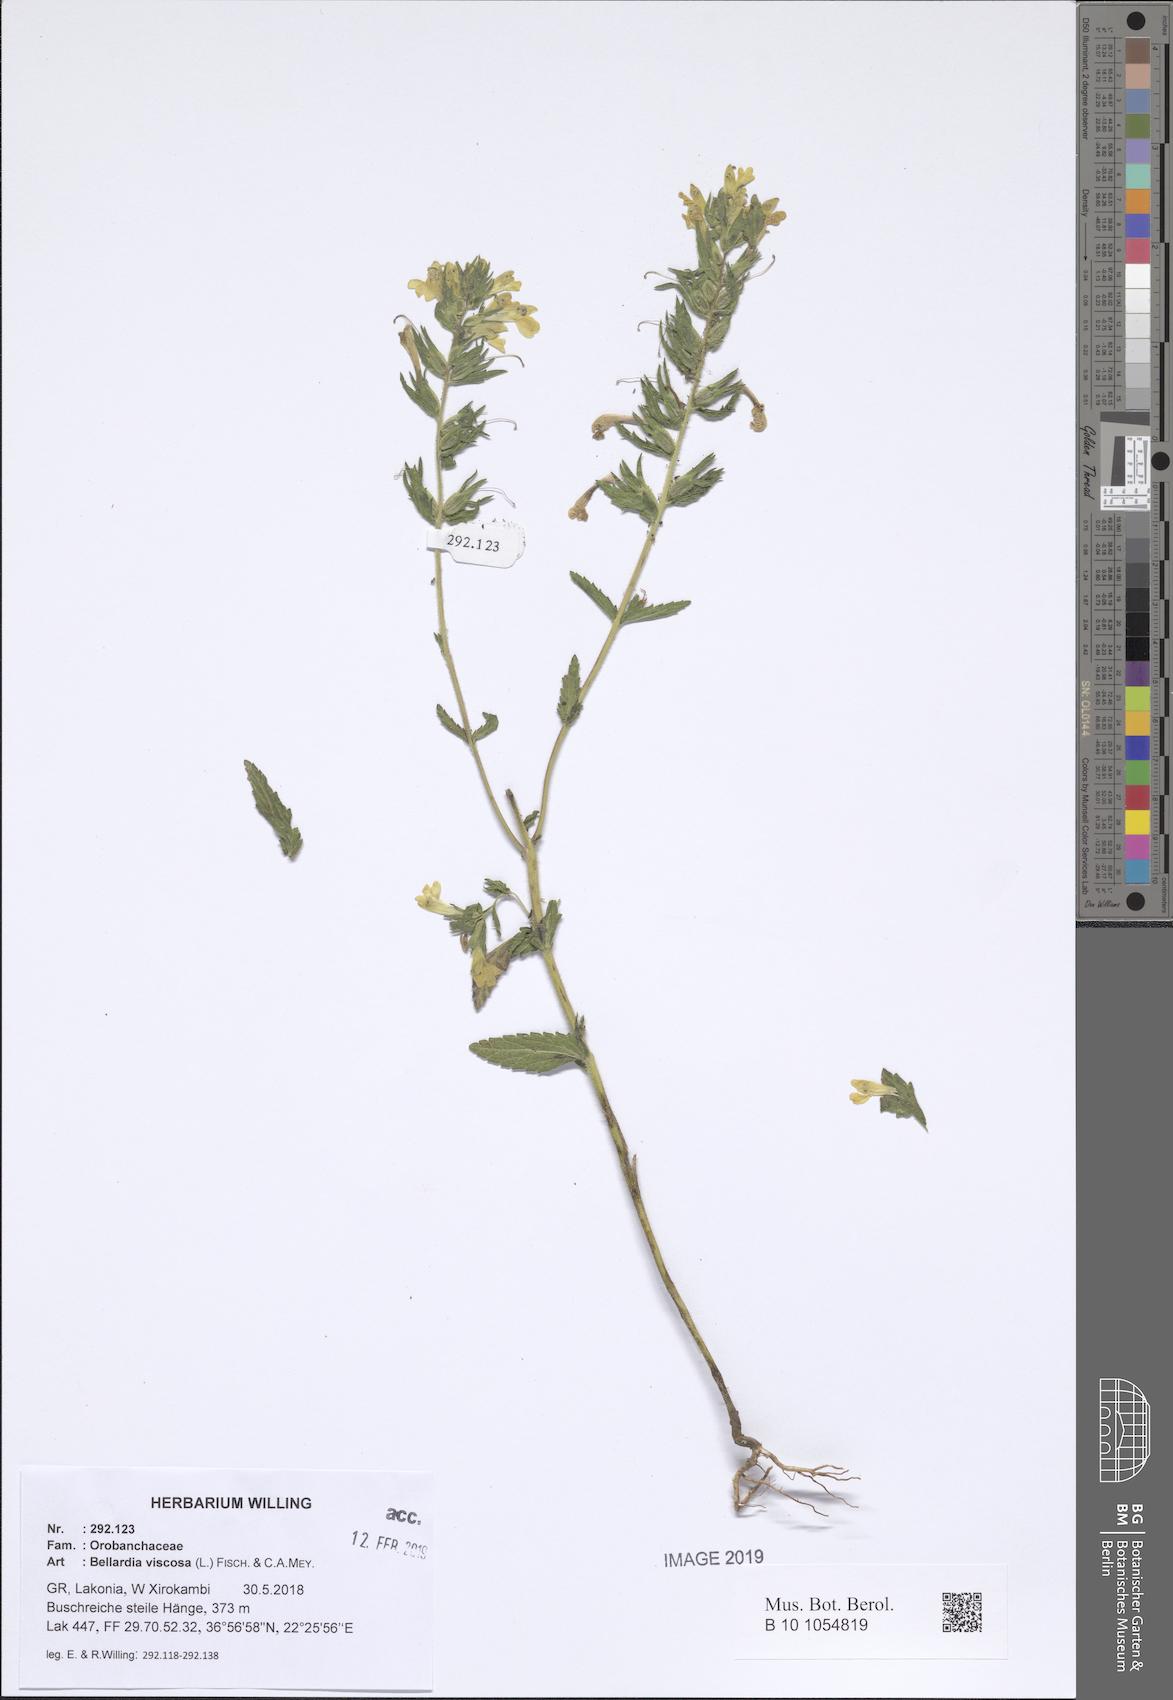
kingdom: Plantae
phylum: Tracheophyta
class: Magnoliopsida
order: Lamiales
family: Orobanchaceae
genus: Bellardia
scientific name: Bellardia viscosa
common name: Sticky parentucellia
